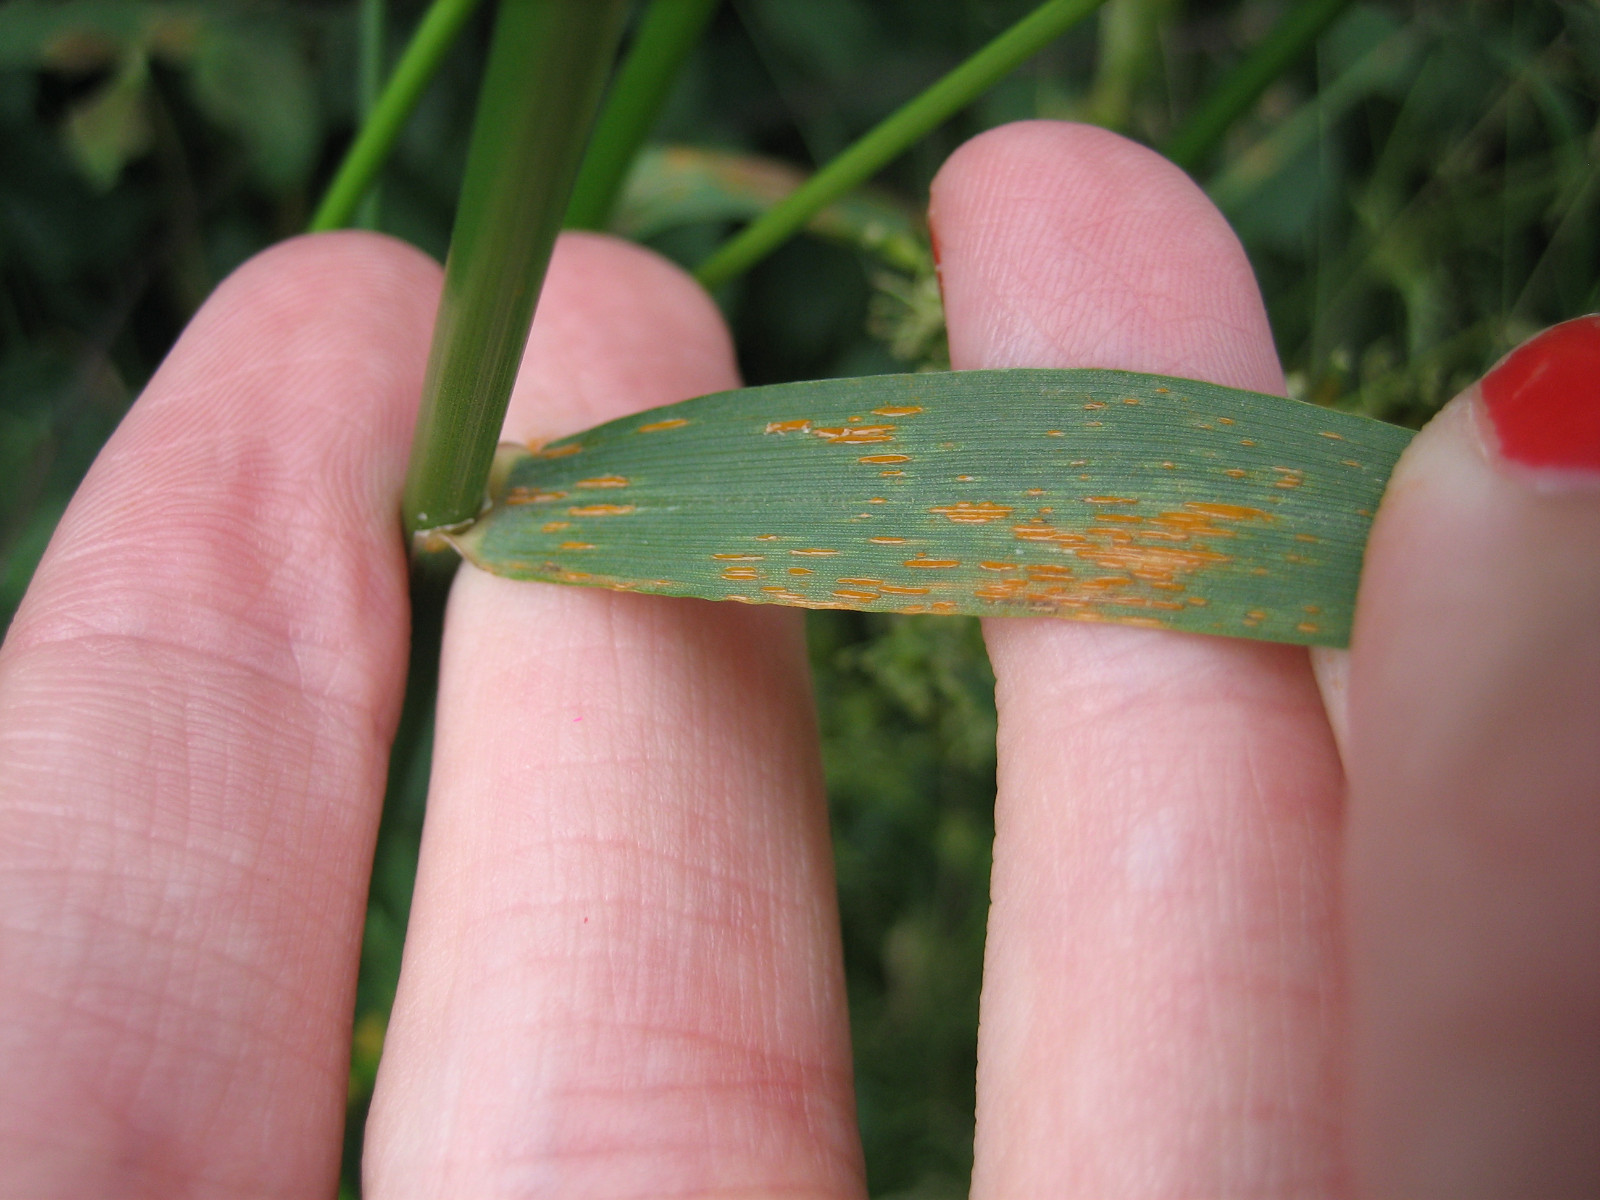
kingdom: Fungi
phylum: Basidiomycota
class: Pucciniomycetes
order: Pucciniales
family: Pucciniaceae
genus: Puccinia
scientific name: Puccinia striiformis
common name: stribe-tvecellerust
